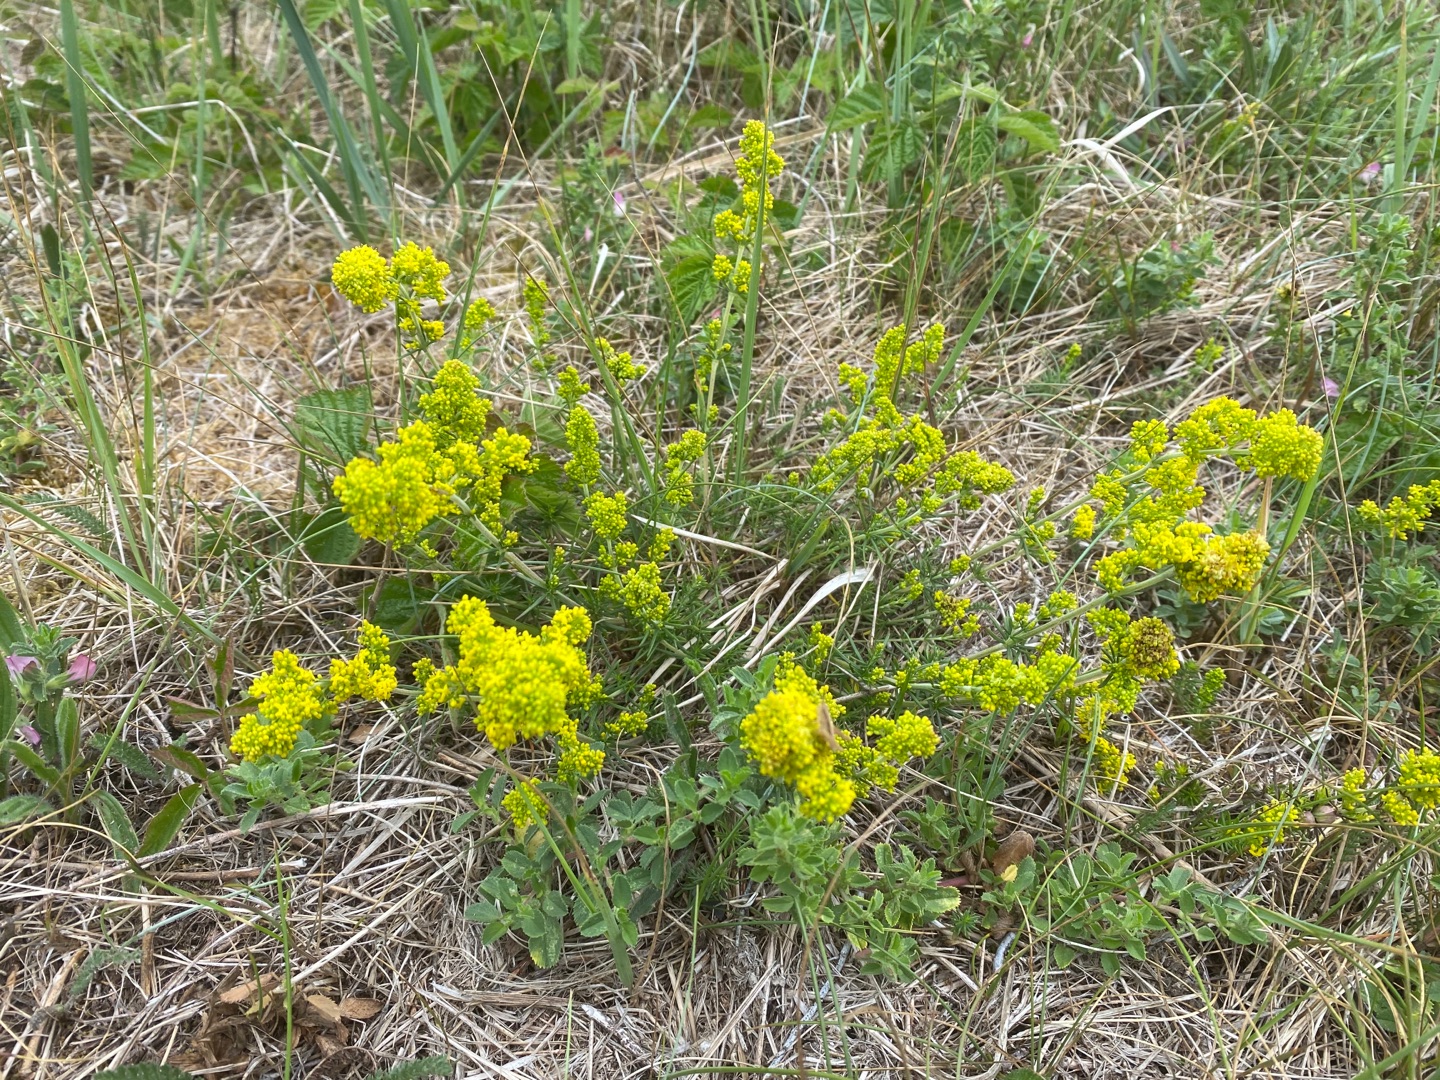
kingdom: Plantae
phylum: Tracheophyta
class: Magnoliopsida
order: Gentianales
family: Rubiaceae
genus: Galium
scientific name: Galium verum
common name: Gul snerre
